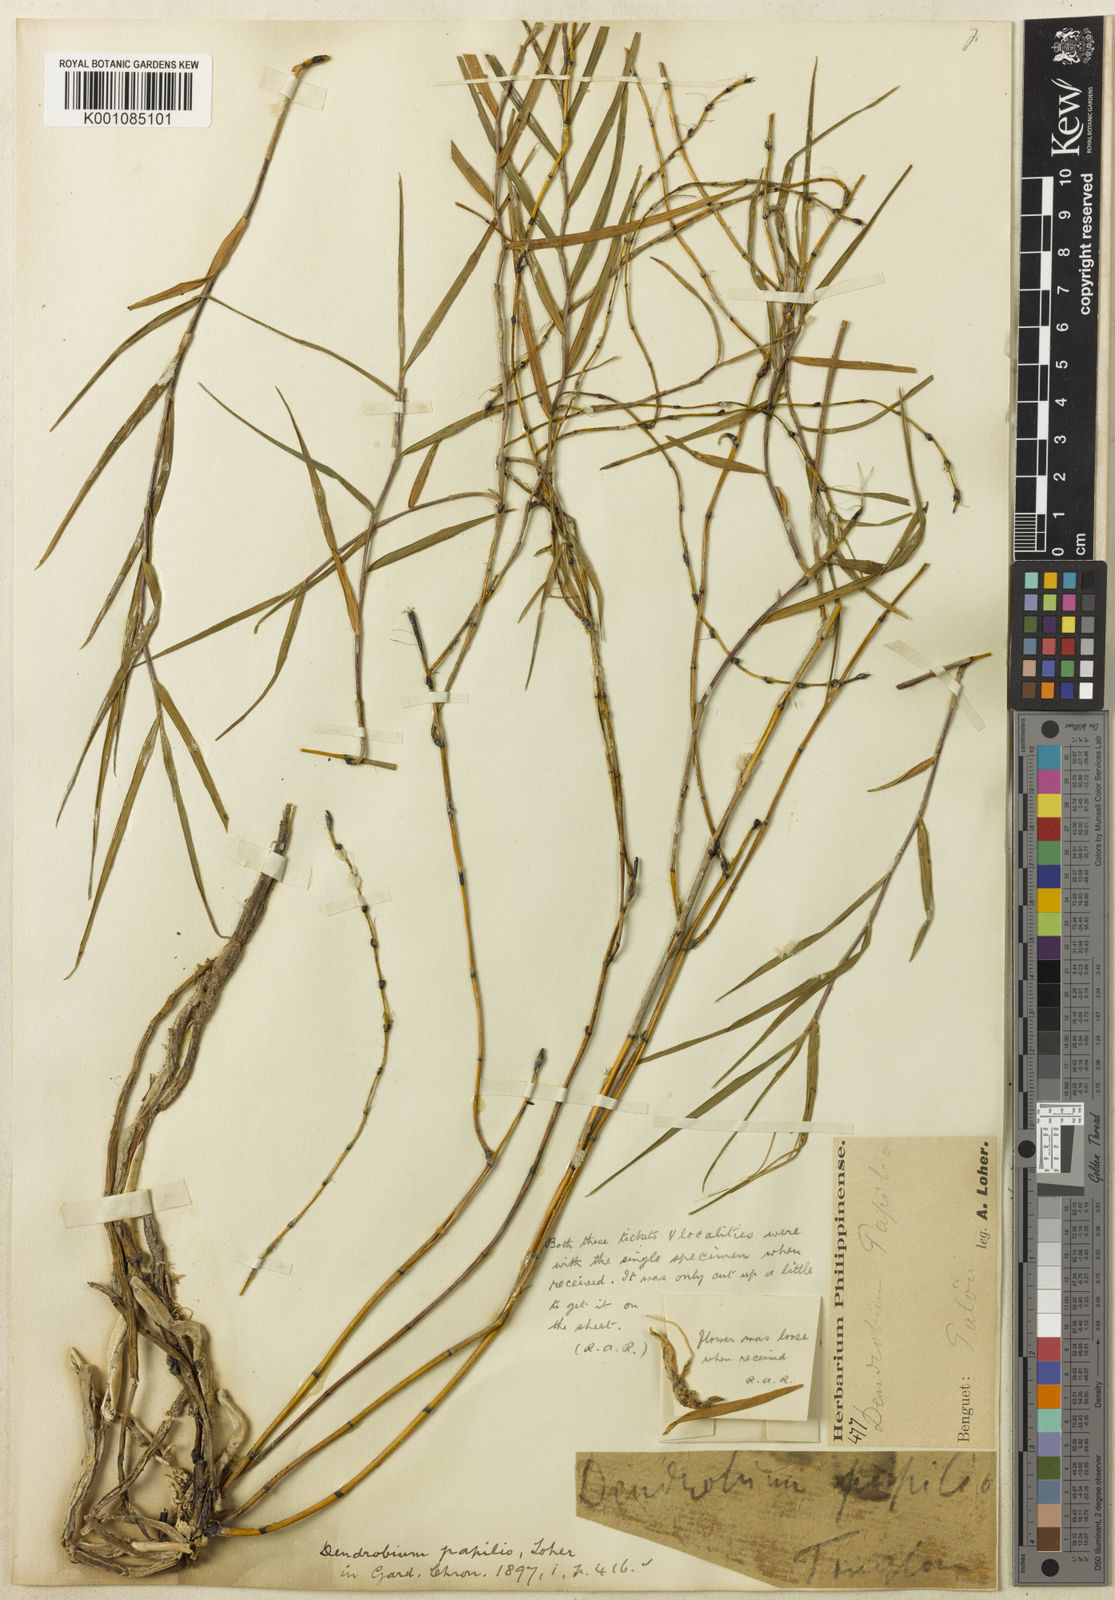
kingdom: Plantae
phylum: Tracheophyta
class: Liliopsida
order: Asparagales
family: Orchidaceae
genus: Dendrobium
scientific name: Dendrobium papilio
